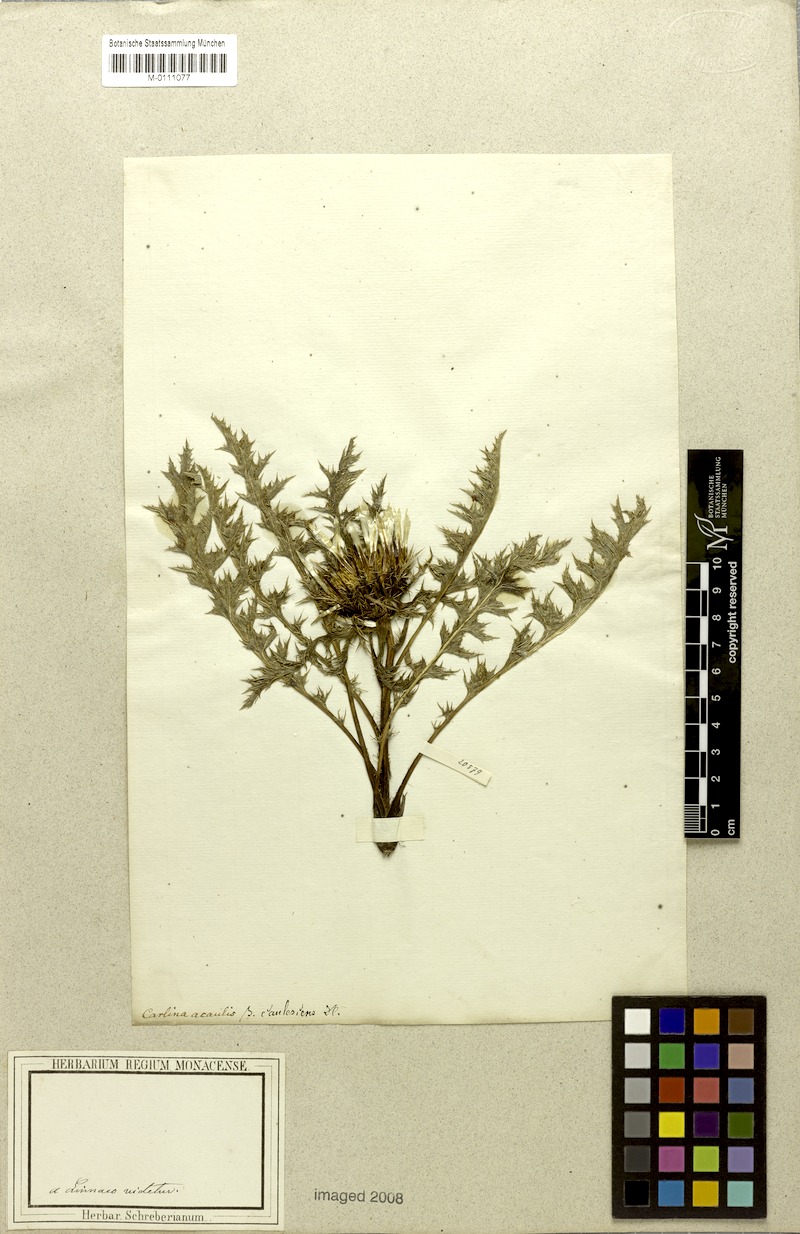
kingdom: Plantae
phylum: Tracheophyta
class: Magnoliopsida
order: Asterales
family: Asteraceae
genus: Carlina
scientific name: Carlina acaulis
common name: Stemless carline thistle
